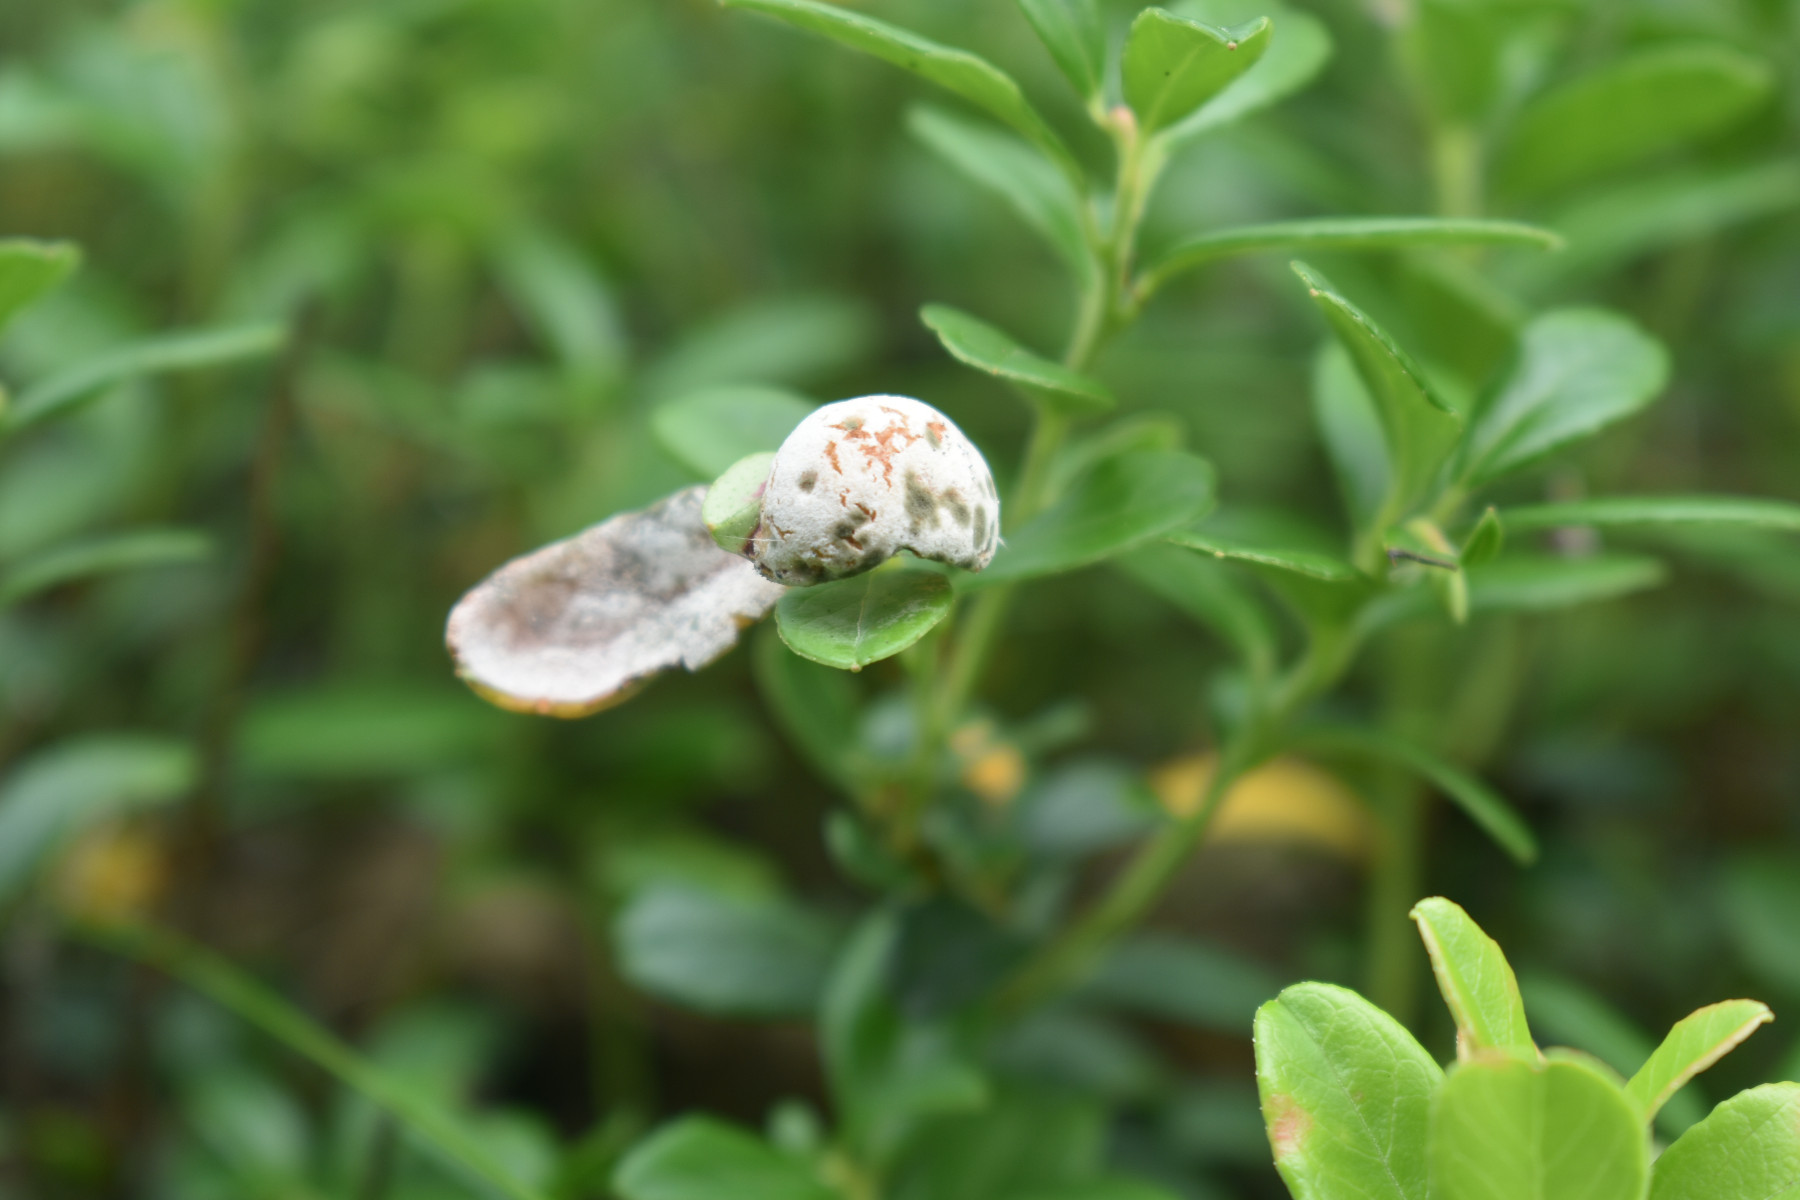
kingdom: Fungi
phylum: Basidiomycota
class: Exobasidiomycetes
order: Exobasidiales
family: Exobasidiaceae
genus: Exobasidium
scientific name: Exobasidium vaccinii
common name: tyttebærblad-bøllesvamp
